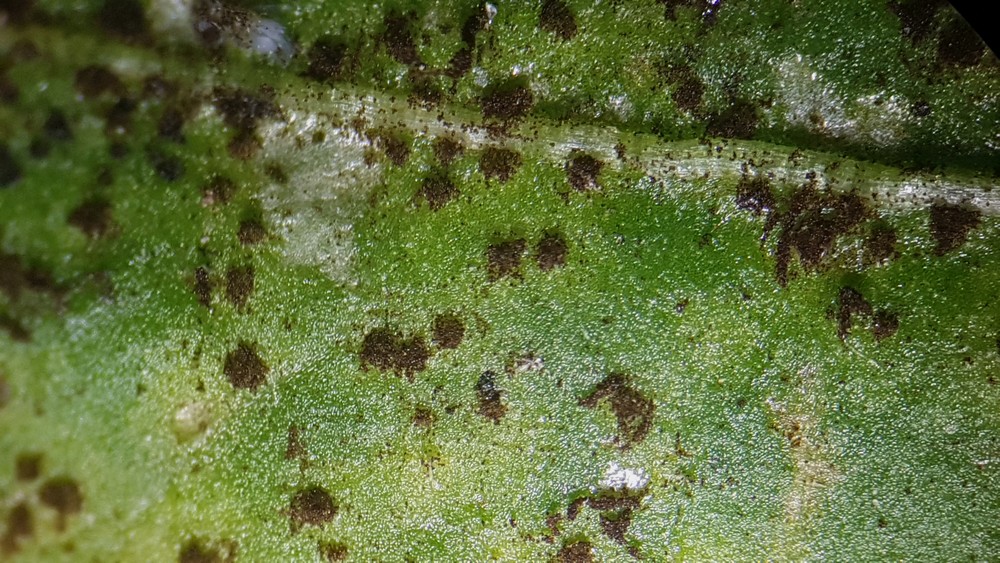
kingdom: Fungi
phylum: Basidiomycota
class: Pucciniomycetes
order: Pucciniales
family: Pucciniaceae
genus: Puccinia
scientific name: Puccinia hieracii
